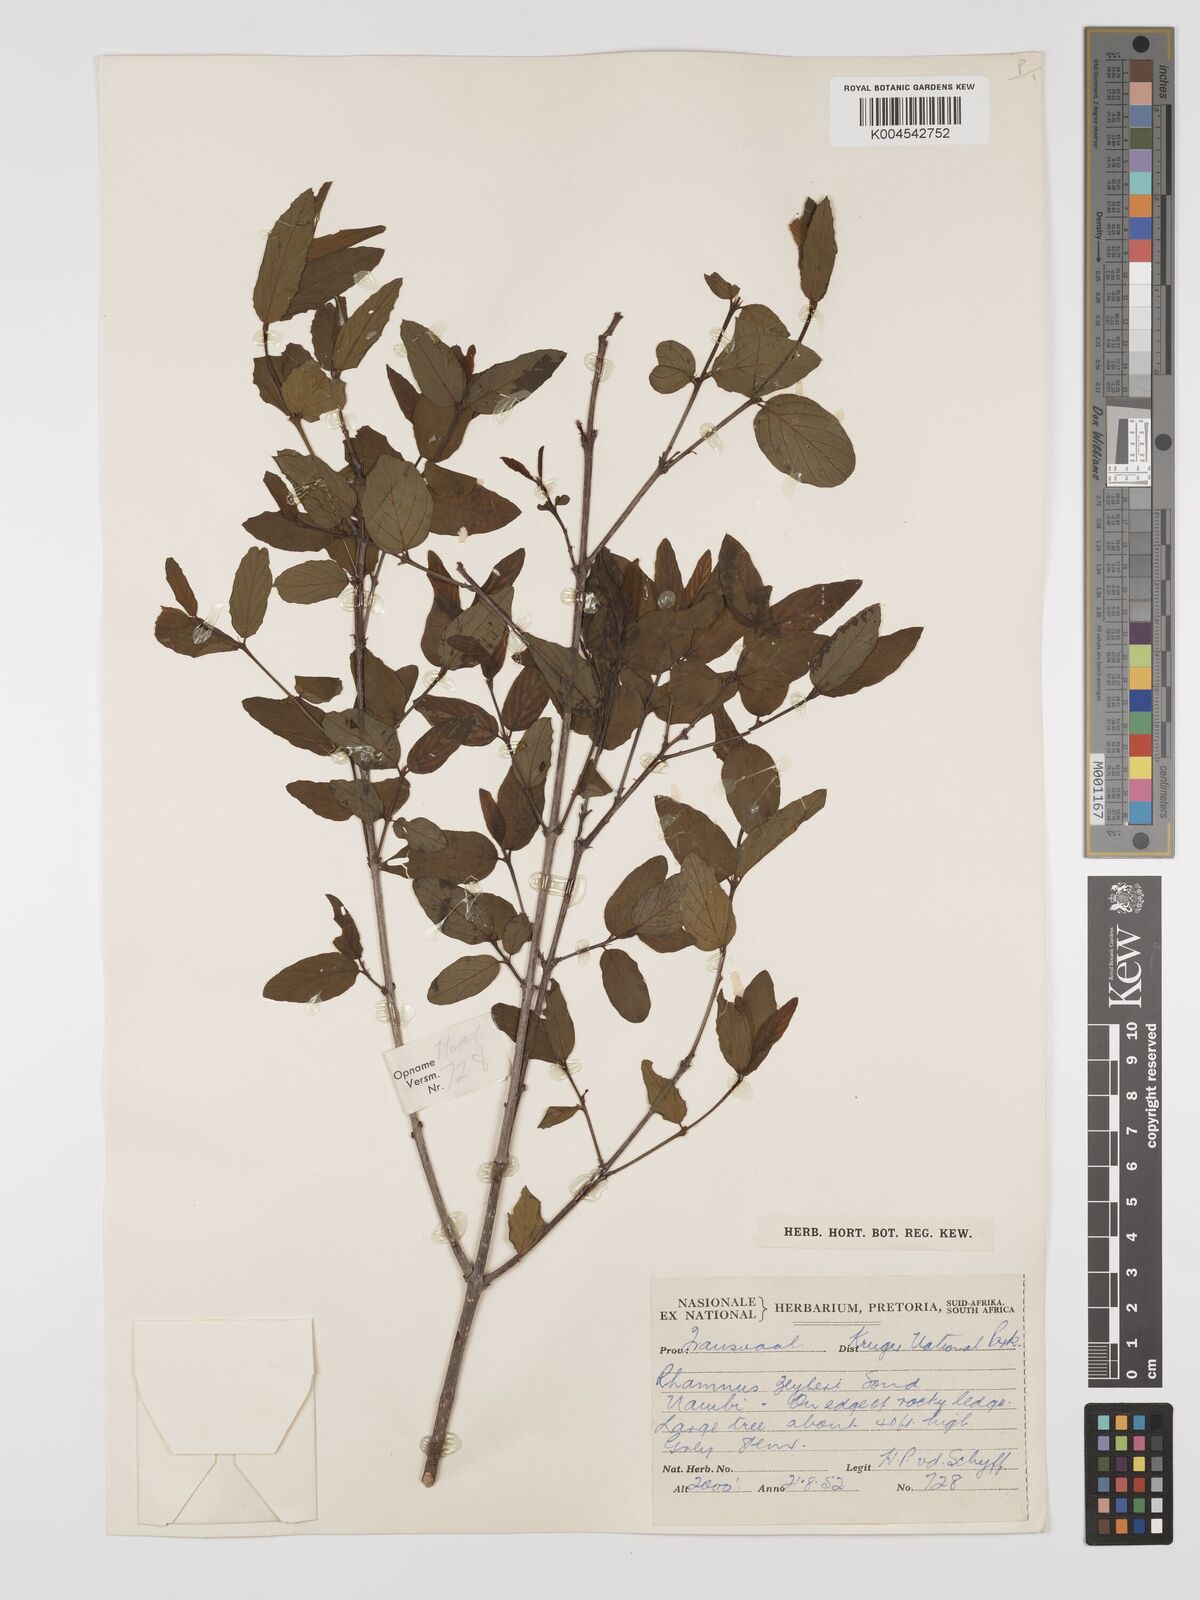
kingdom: Plantae
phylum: Tracheophyta
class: Magnoliopsida
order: Rosales
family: Rhamnaceae
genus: Phyllogeiton
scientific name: Phyllogeiton zeyheri
